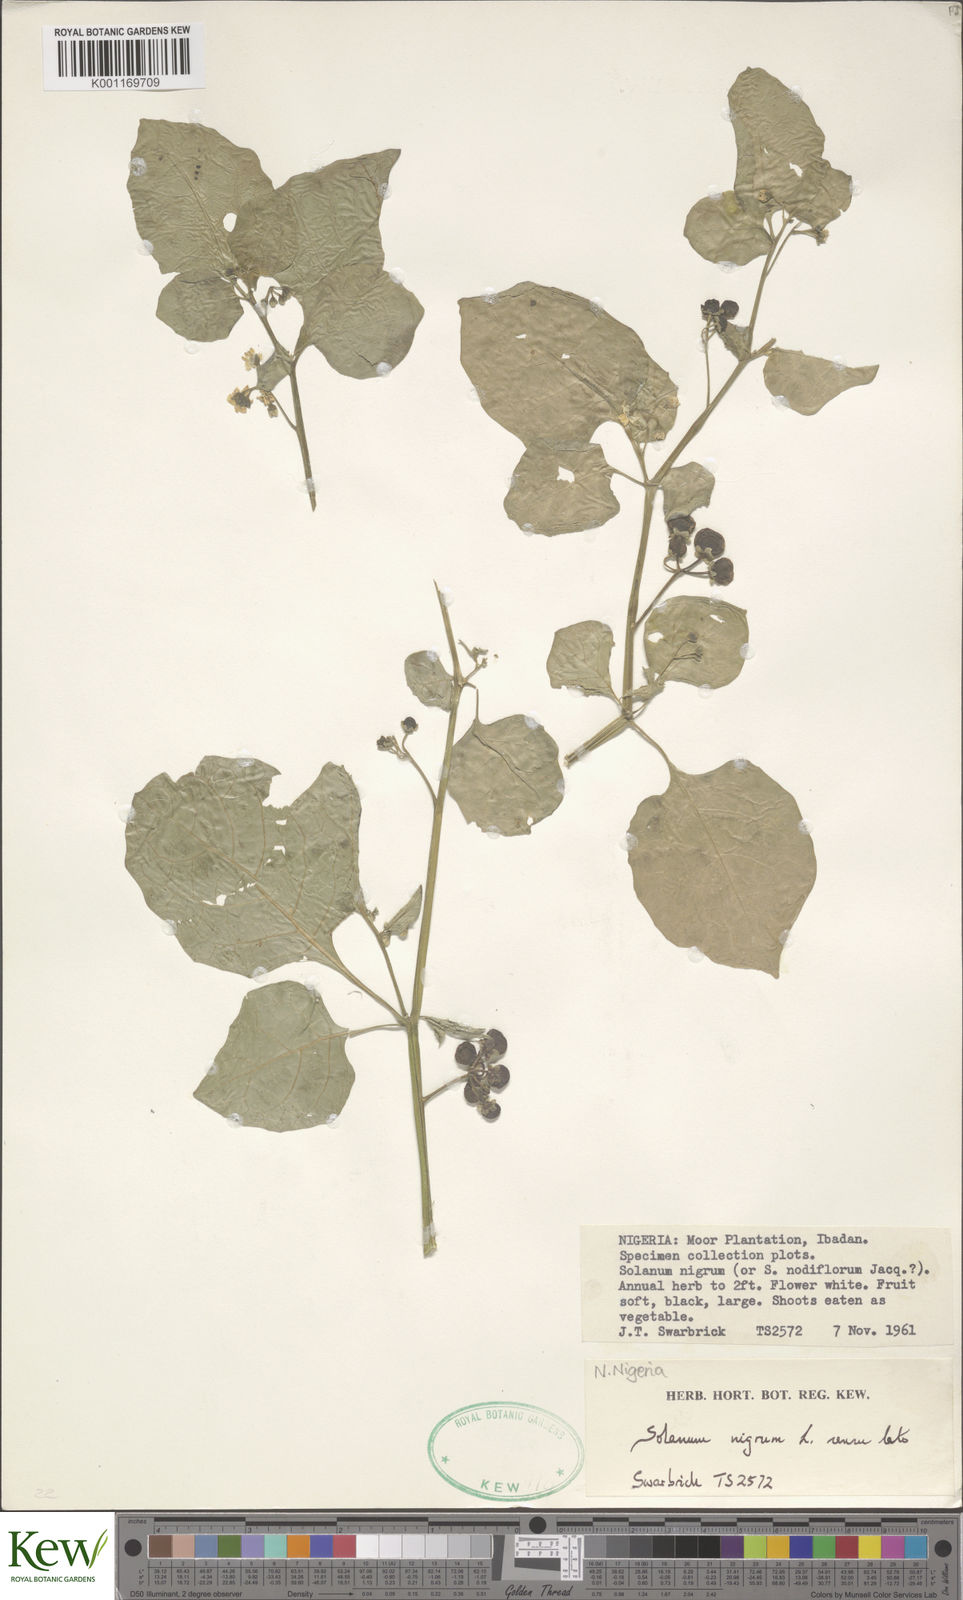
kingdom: Plantae
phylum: Tracheophyta
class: Magnoliopsida
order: Solanales
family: Solanaceae
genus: Solanum
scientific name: Solanum scabrum
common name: Garden-huckleberry
